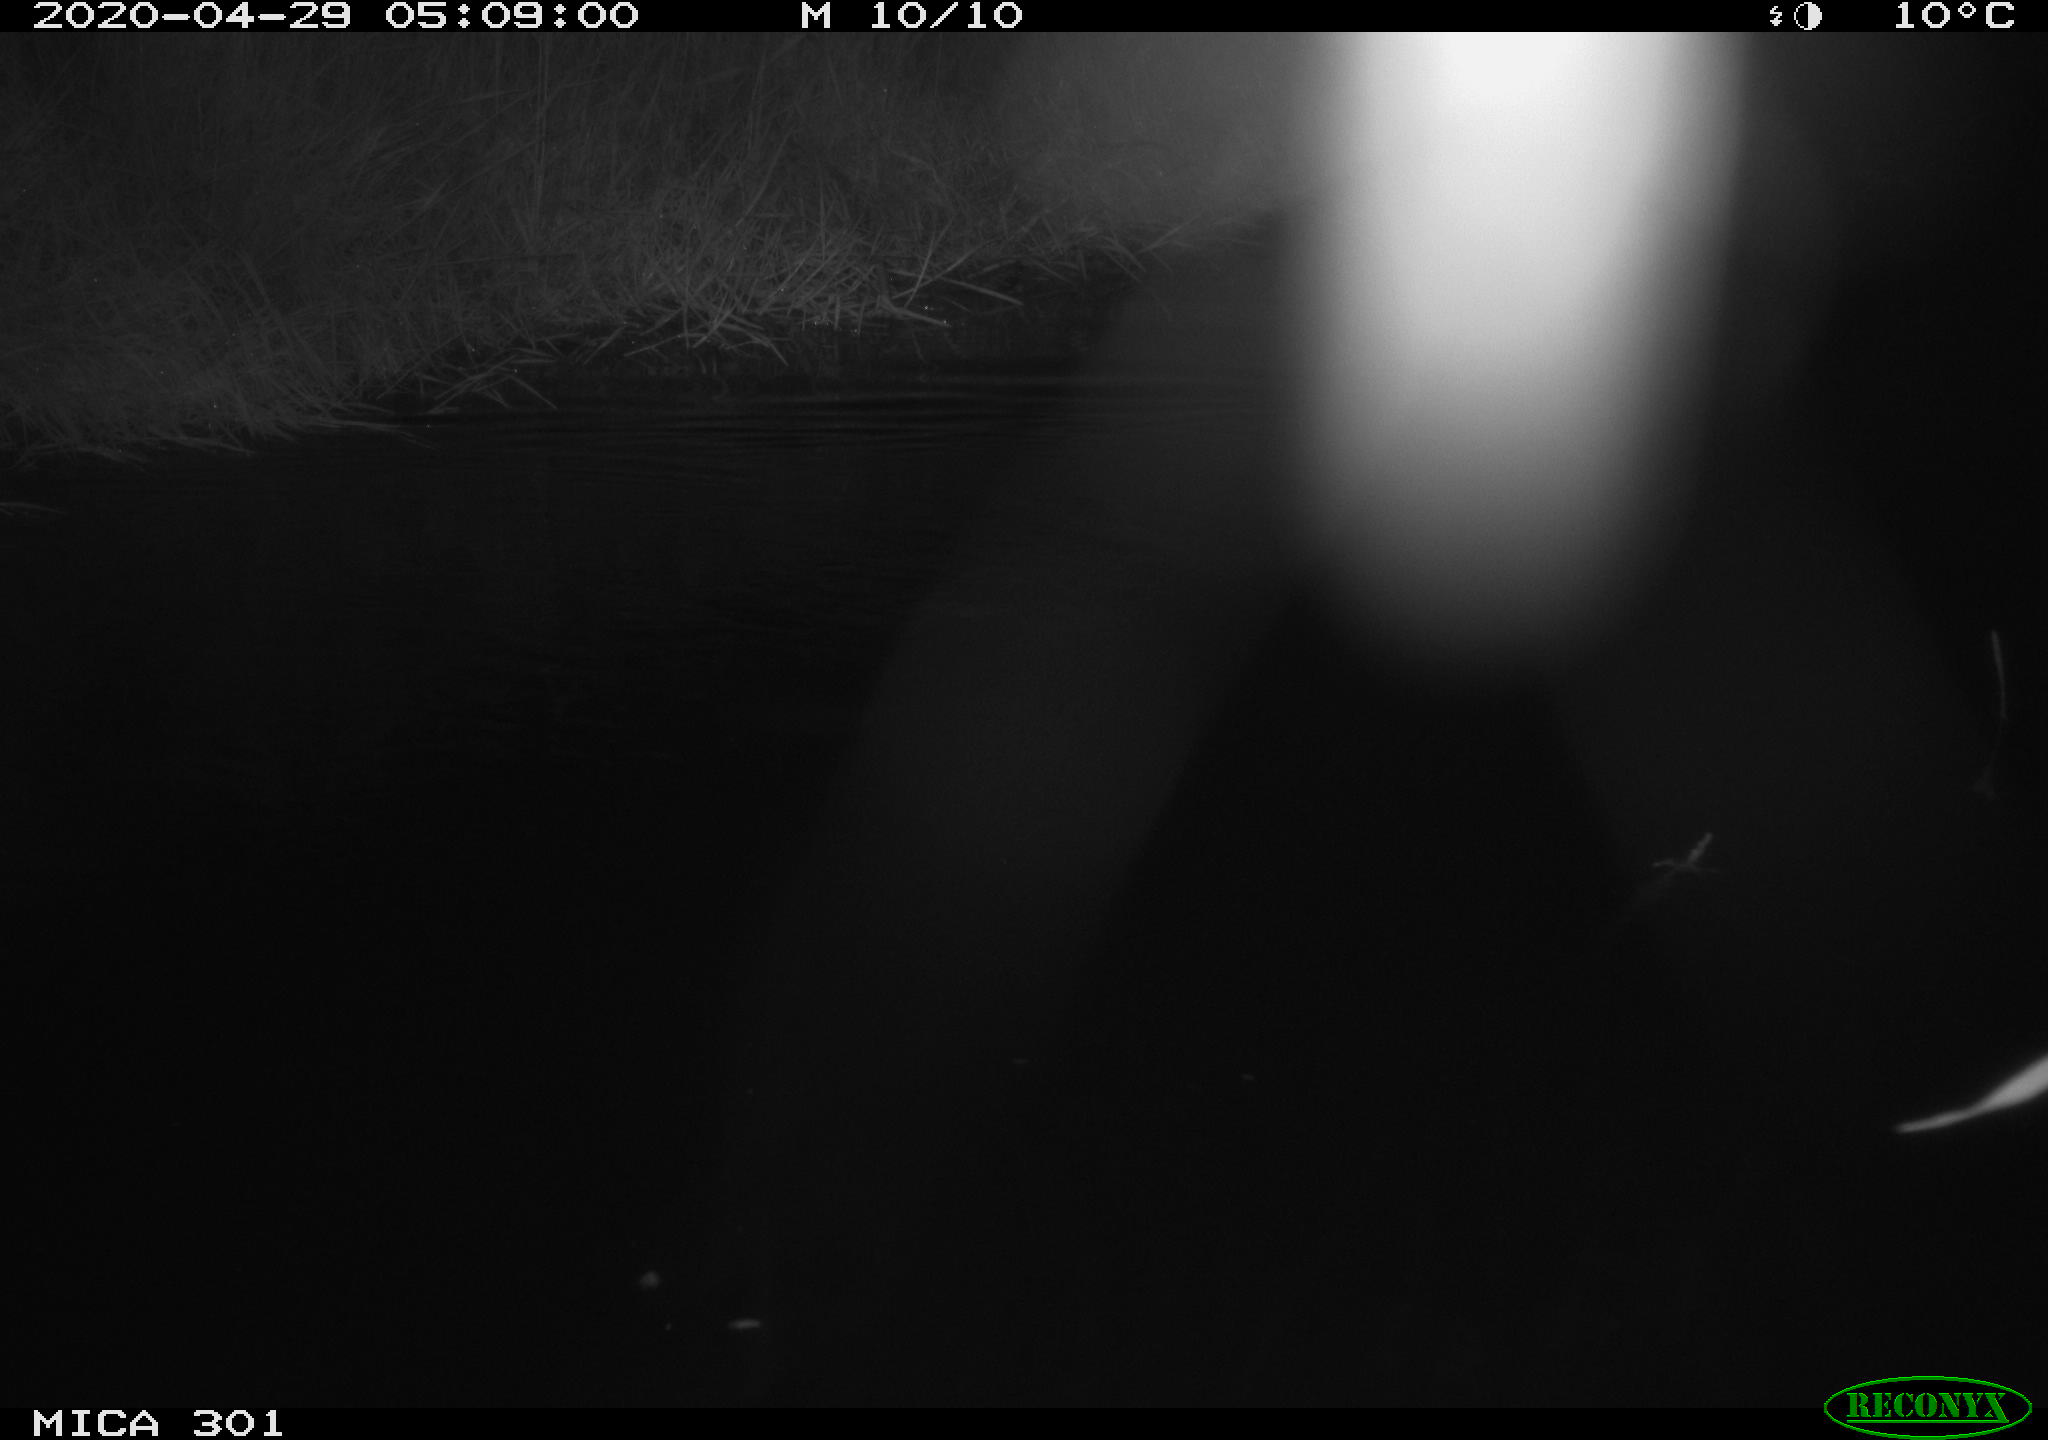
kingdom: Animalia
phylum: Chordata
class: Mammalia
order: Rodentia
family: Castoridae
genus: Castor
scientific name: Castor fiber
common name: Eurasian beaver
